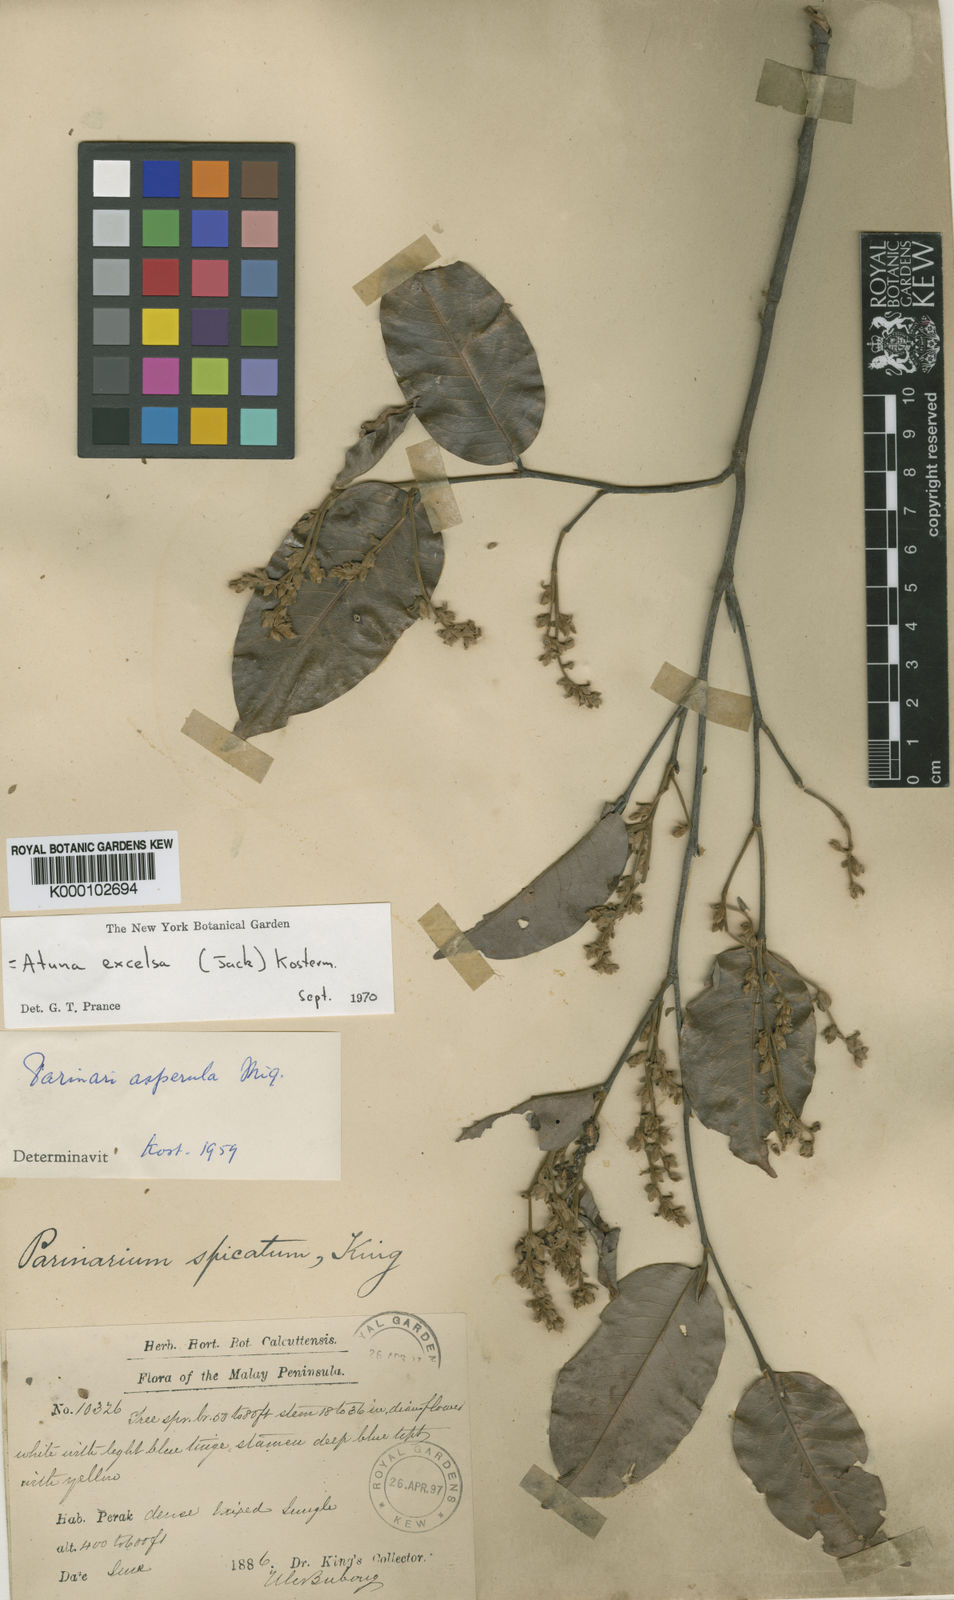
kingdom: Plantae
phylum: Tracheophyta
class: Magnoliopsida
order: Malpighiales
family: Chrysobalanaceae
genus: Atuna
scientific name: Atuna excelsa
